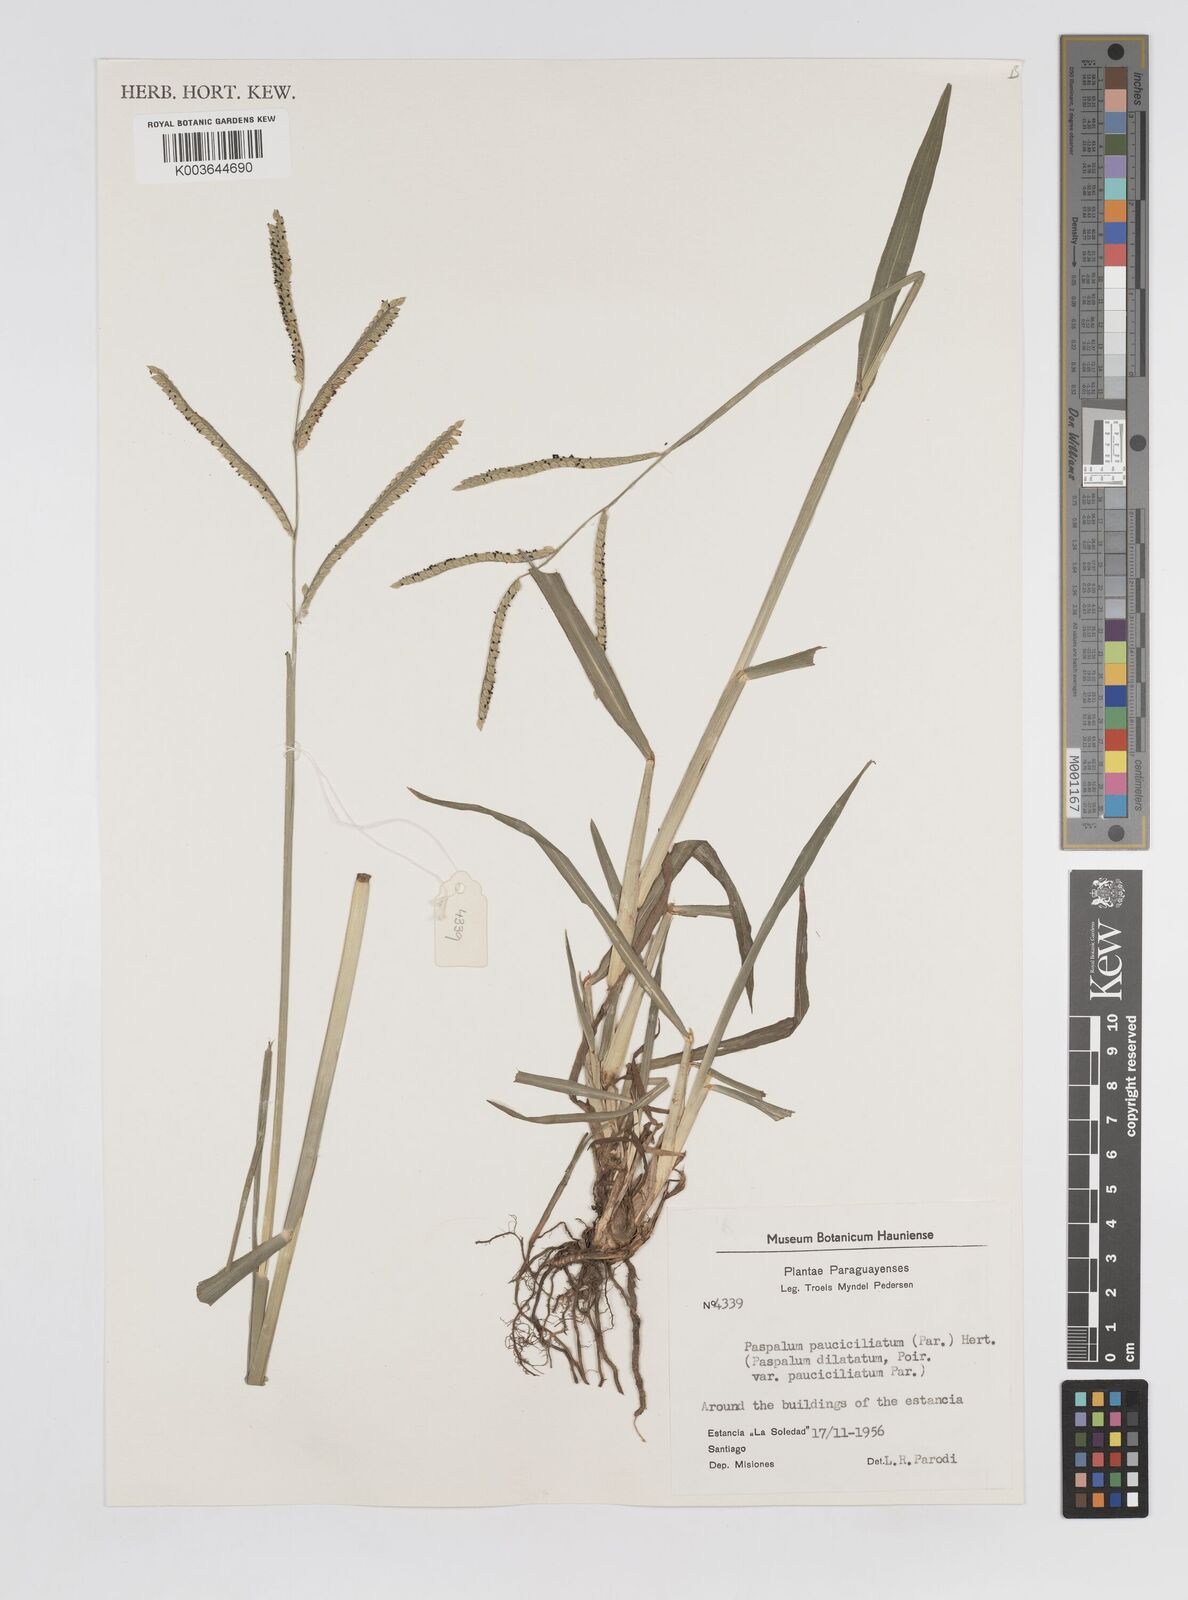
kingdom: Plantae
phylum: Tracheophyta
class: Liliopsida
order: Poales
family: Poaceae
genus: Paspalum
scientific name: Paspalum pauciciliatum
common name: Prostrate dallis grass
